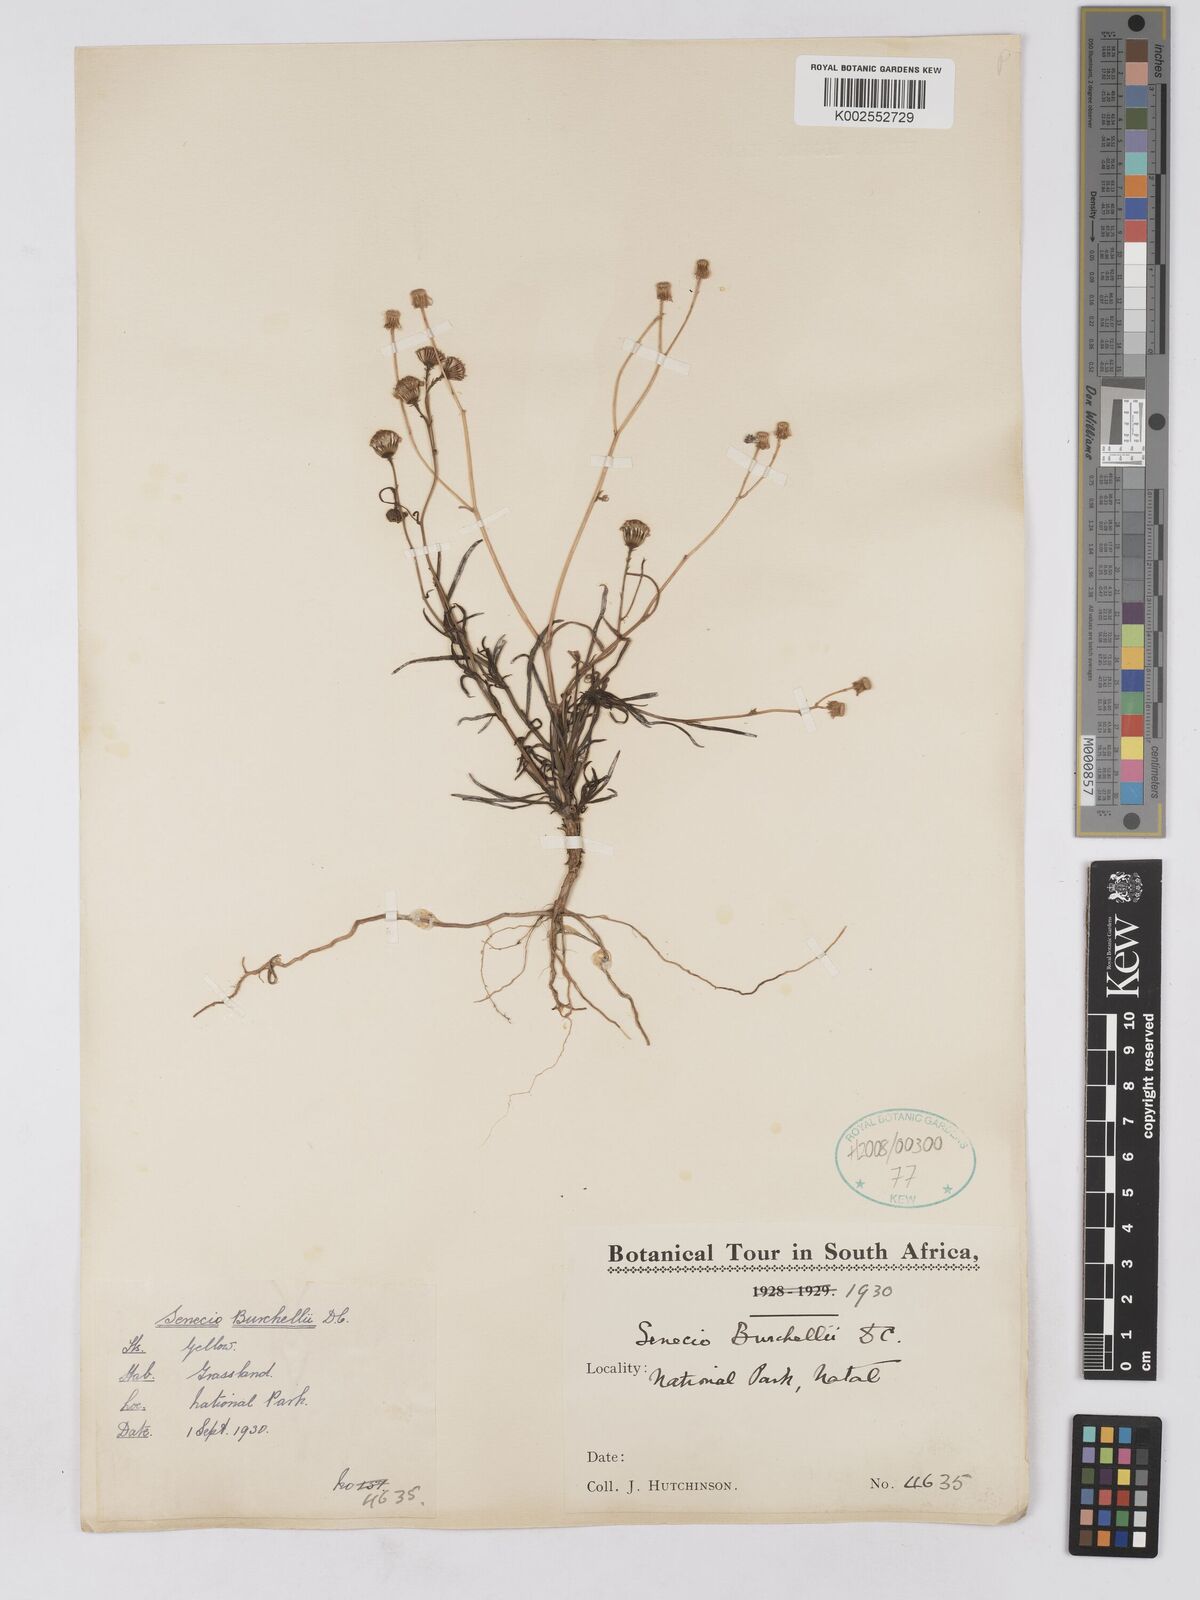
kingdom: Plantae
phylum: Tracheophyta
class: Magnoliopsida
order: Asterales
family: Asteraceae
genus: Senecio
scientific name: Senecio madagascariensis
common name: Madagascar ragwort
